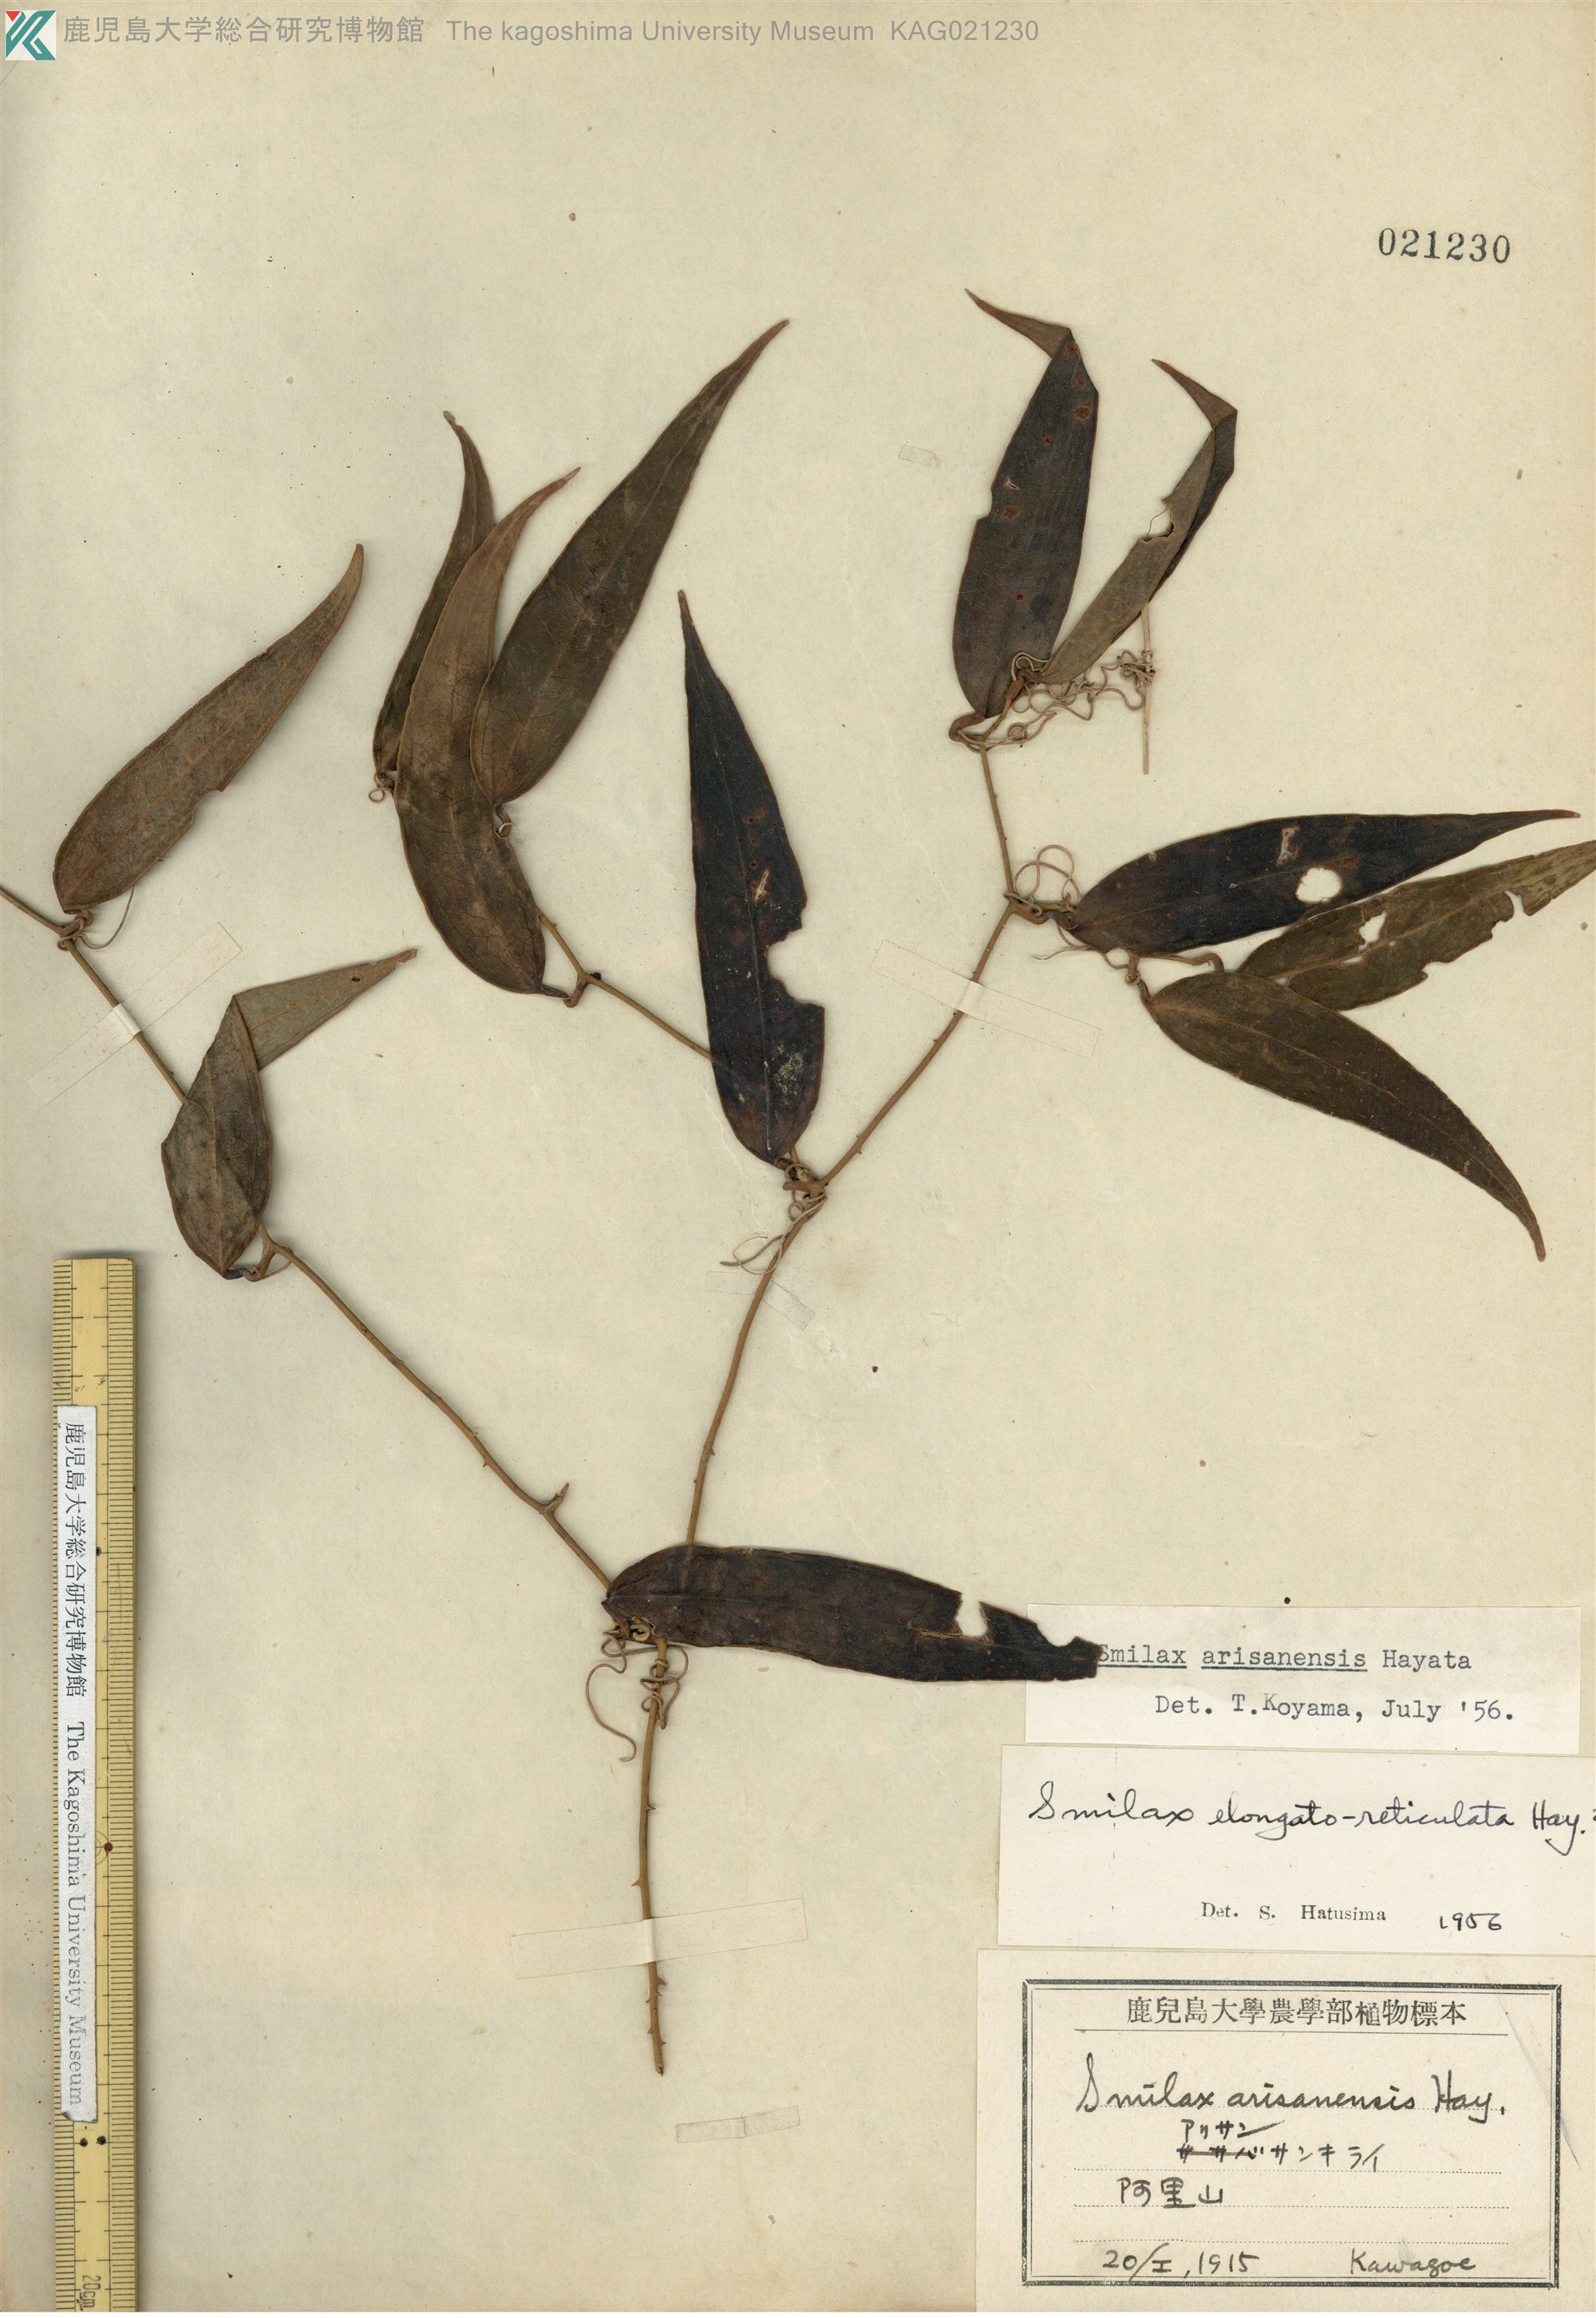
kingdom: Plantae
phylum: Tracheophyta
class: Liliopsida
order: Liliales
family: Smilacaceae
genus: Smilax
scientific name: Smilax oxyphylla
